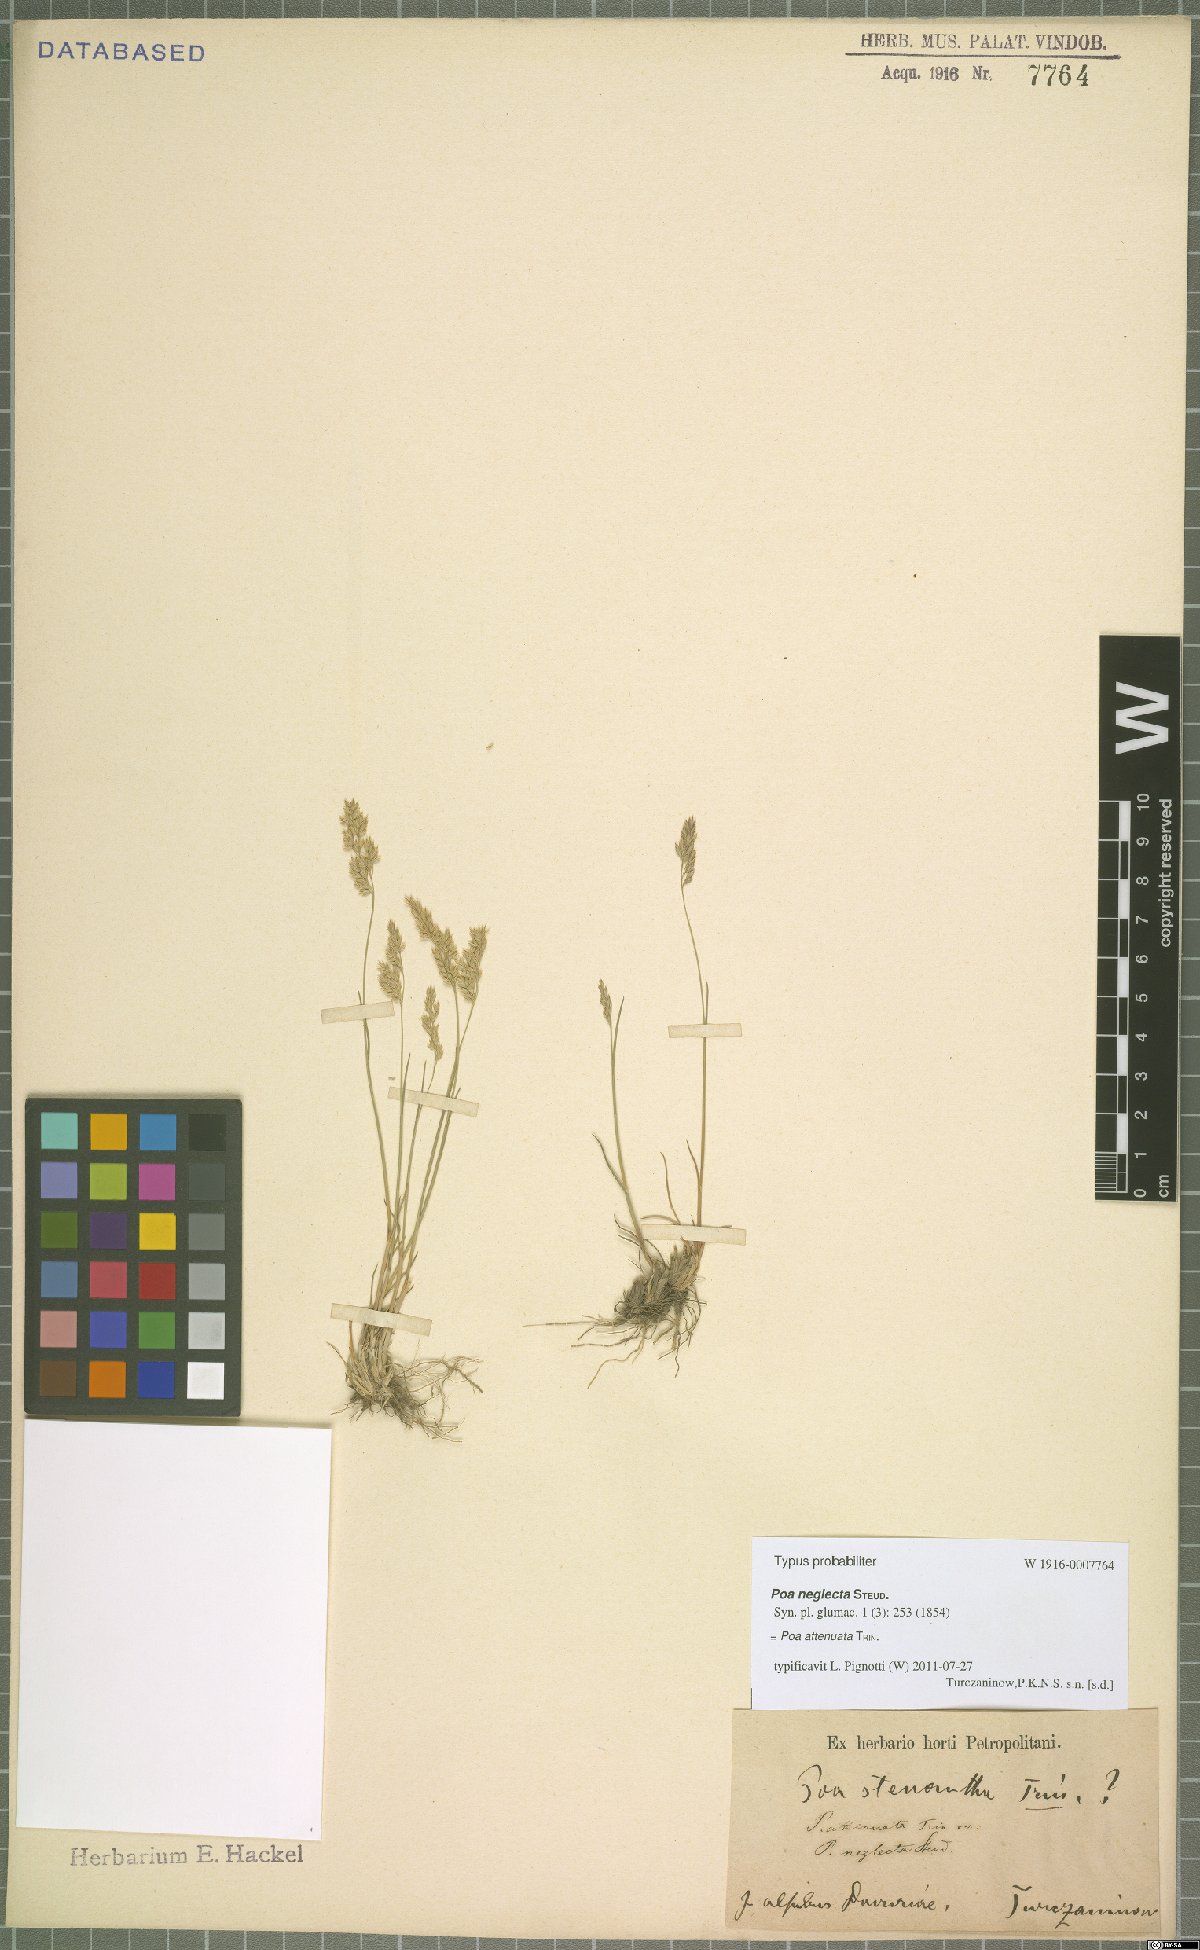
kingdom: Plantae
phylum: Tracheophyta
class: Liliopsida
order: Poales
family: Poaceae
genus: Poa
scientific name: Poa attenuata
